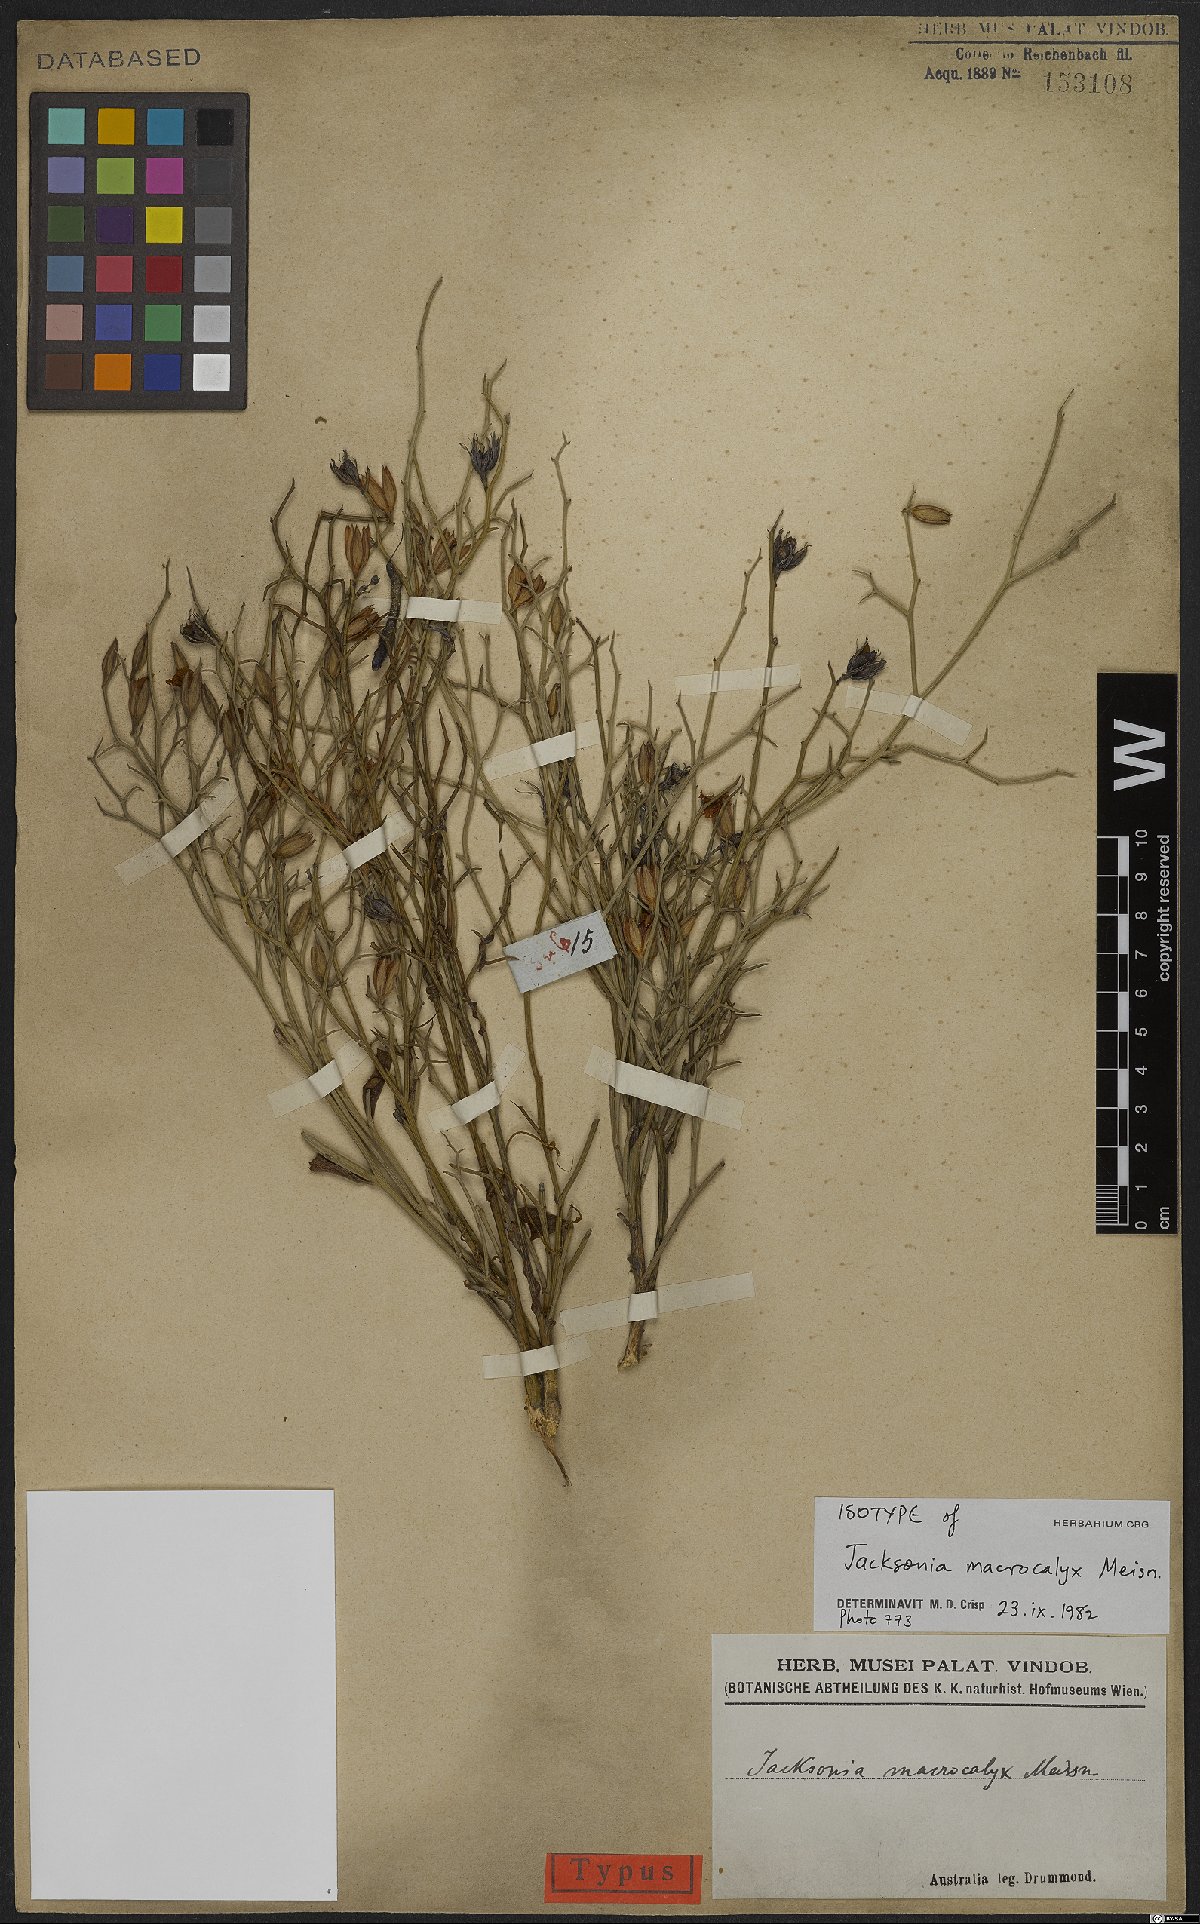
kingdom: Plantae
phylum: Tracheophyta
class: Magnoliopsida
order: Fabales
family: Fabaceae
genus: Jacksonia
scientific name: Jacksonia macrocalyx
